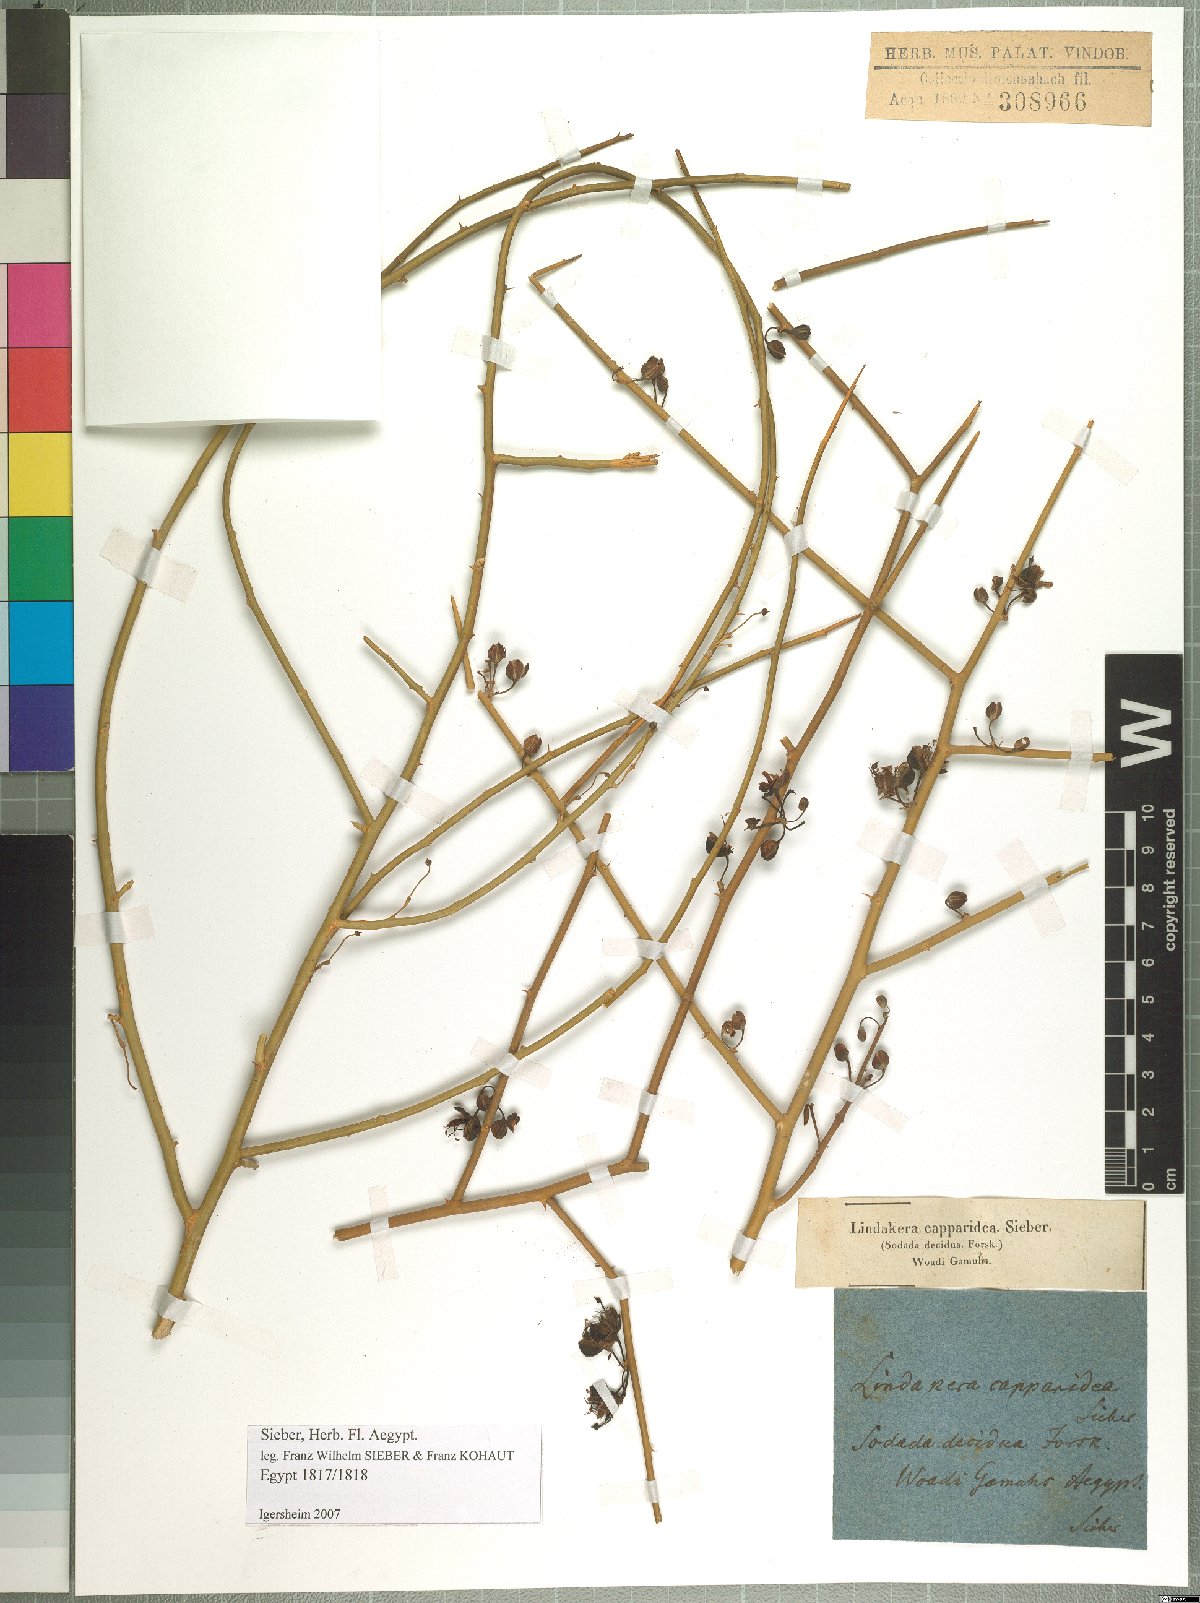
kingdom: Plantae
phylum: Tracheophyta
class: Magnoliopsida
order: Brassicales
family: Capparaceae
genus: Capparis
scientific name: Capparis decidua
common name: Sodada
